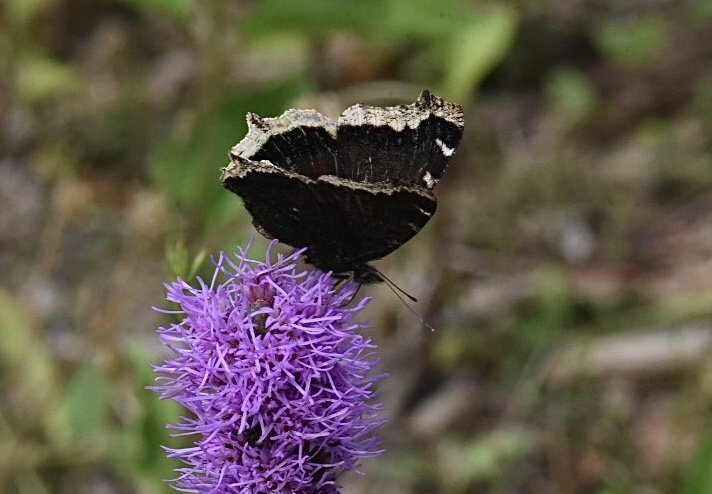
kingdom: Animalia
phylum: Arthropoda
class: Insecta
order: Lepidoptera
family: Nymphalidae
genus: Nymphalis
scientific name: Nymphalis antiopa
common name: Mourning Cloak
